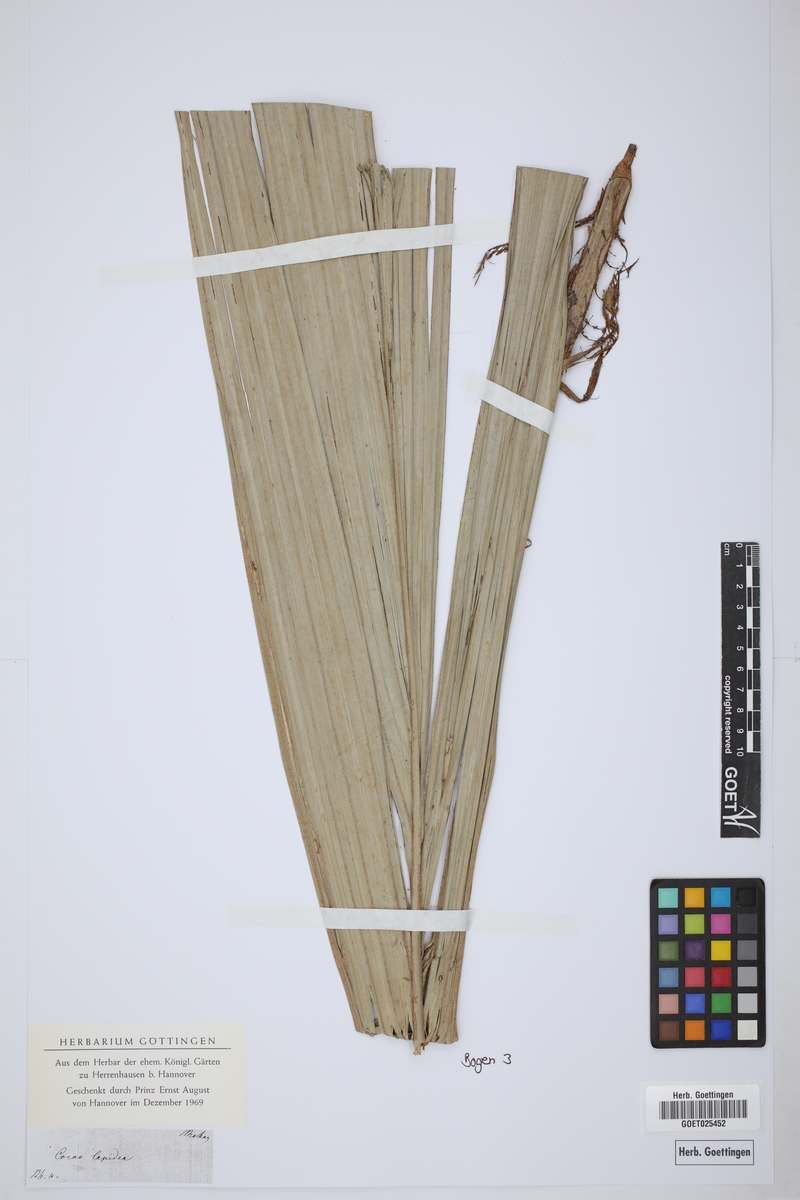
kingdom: Plantae
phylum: Tracheophyta
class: Liliopsida
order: Arecales
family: Arecaceae
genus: Cocos
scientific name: Cocos lapidea
